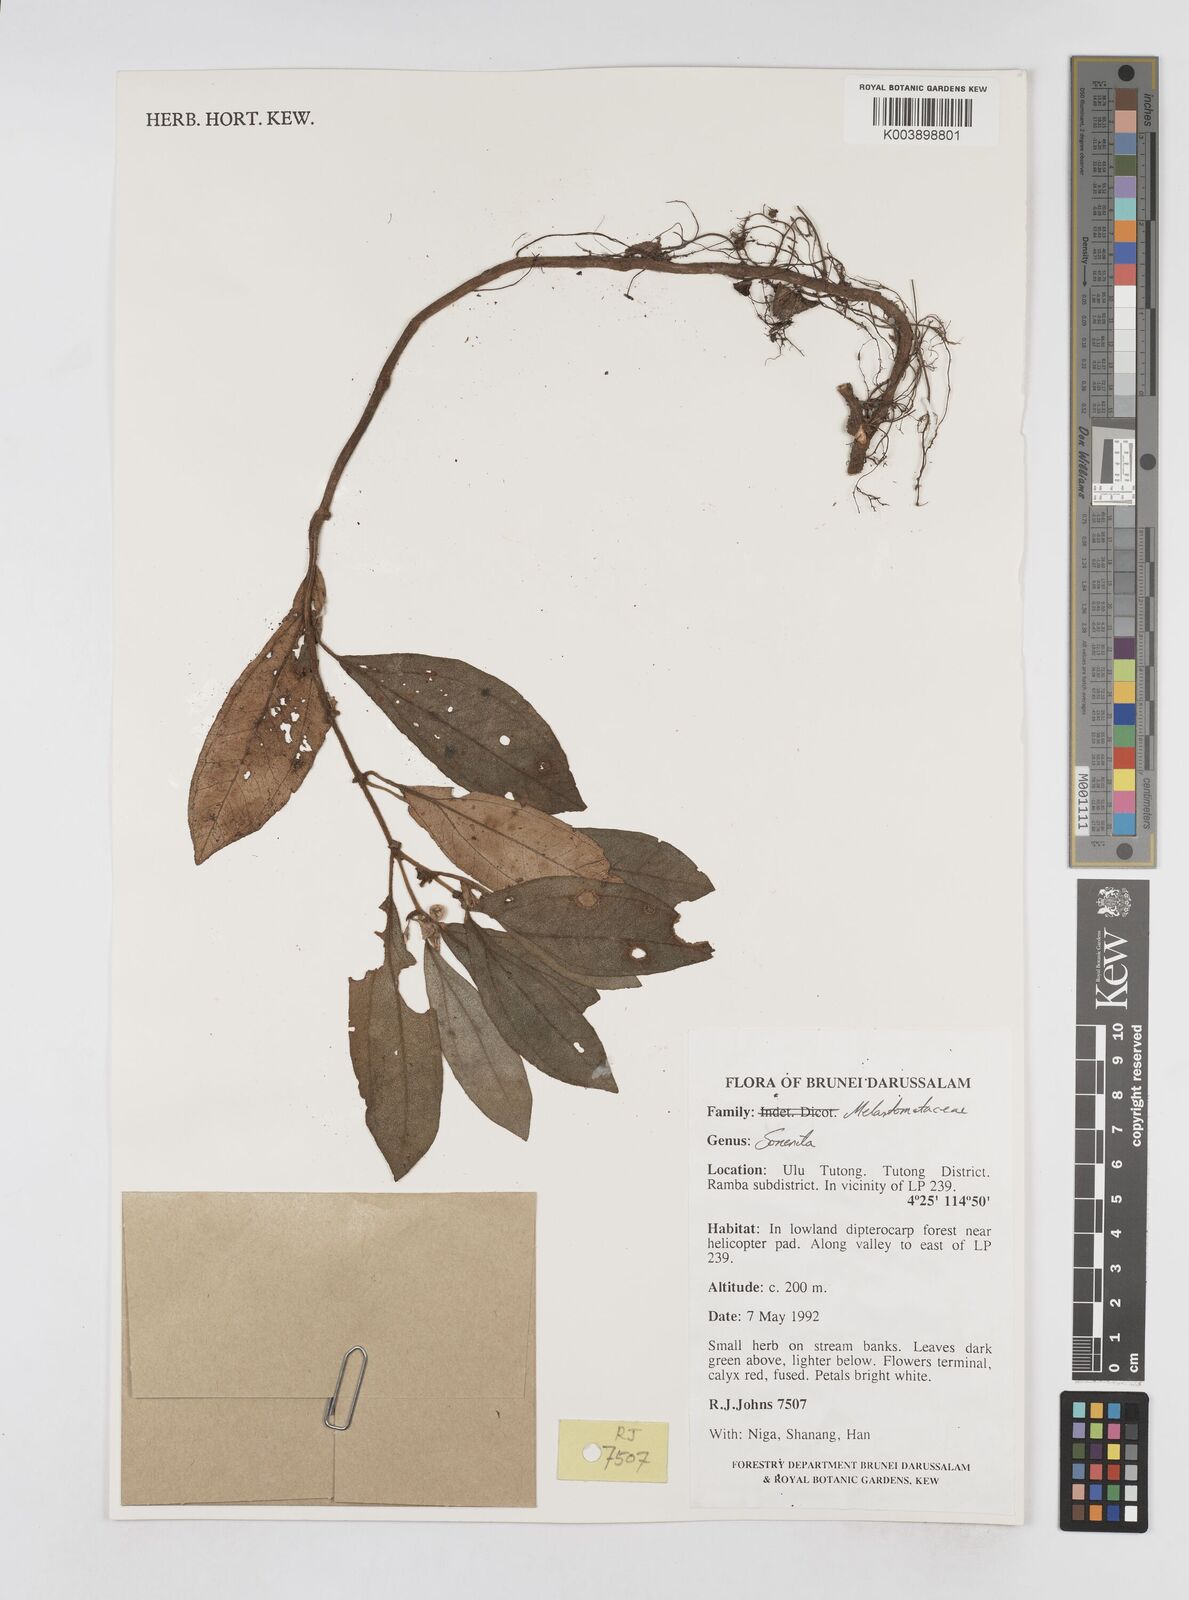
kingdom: Plantae
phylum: Tracheophyta
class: Magnoliopsida
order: Myrtales
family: Melastomataceae
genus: Sonerila
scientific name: Sonerila
